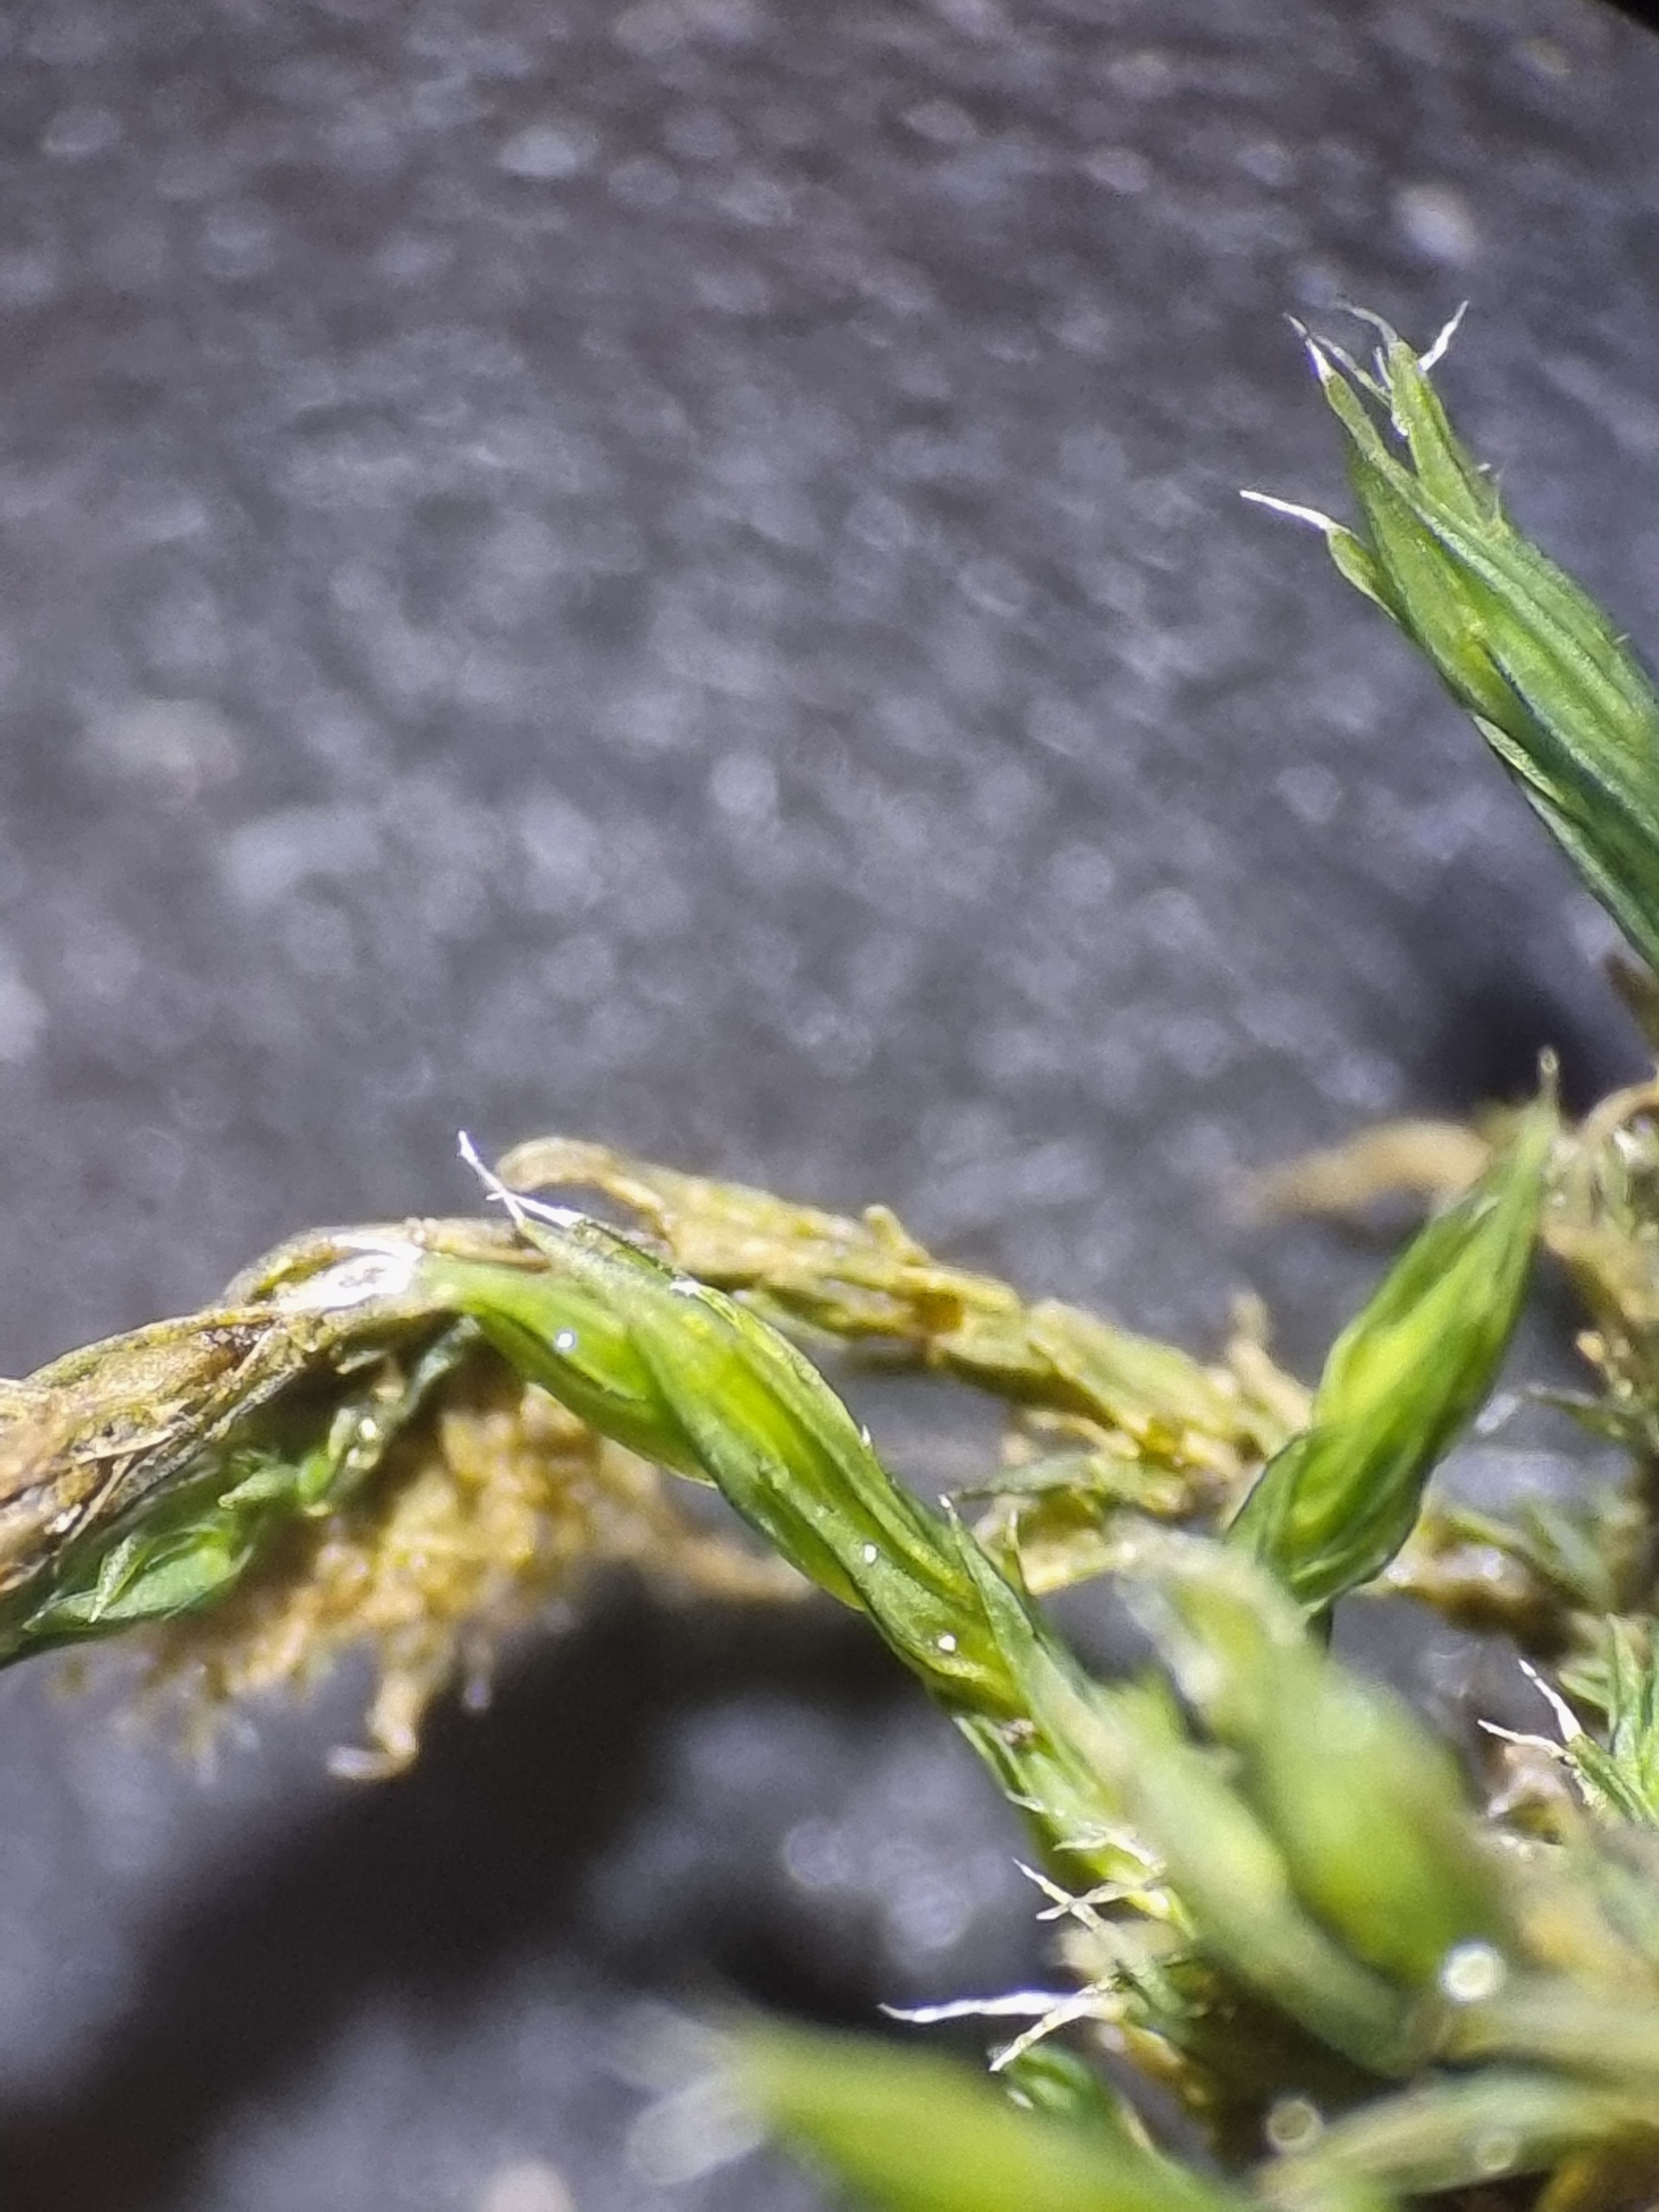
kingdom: Plantae
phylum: Bryophyta
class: Bryopsida
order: Grimmiales
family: Grimmiaceae
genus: Bucklandiella
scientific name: Bucklandiella heterosticha
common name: Sten-børstemos
